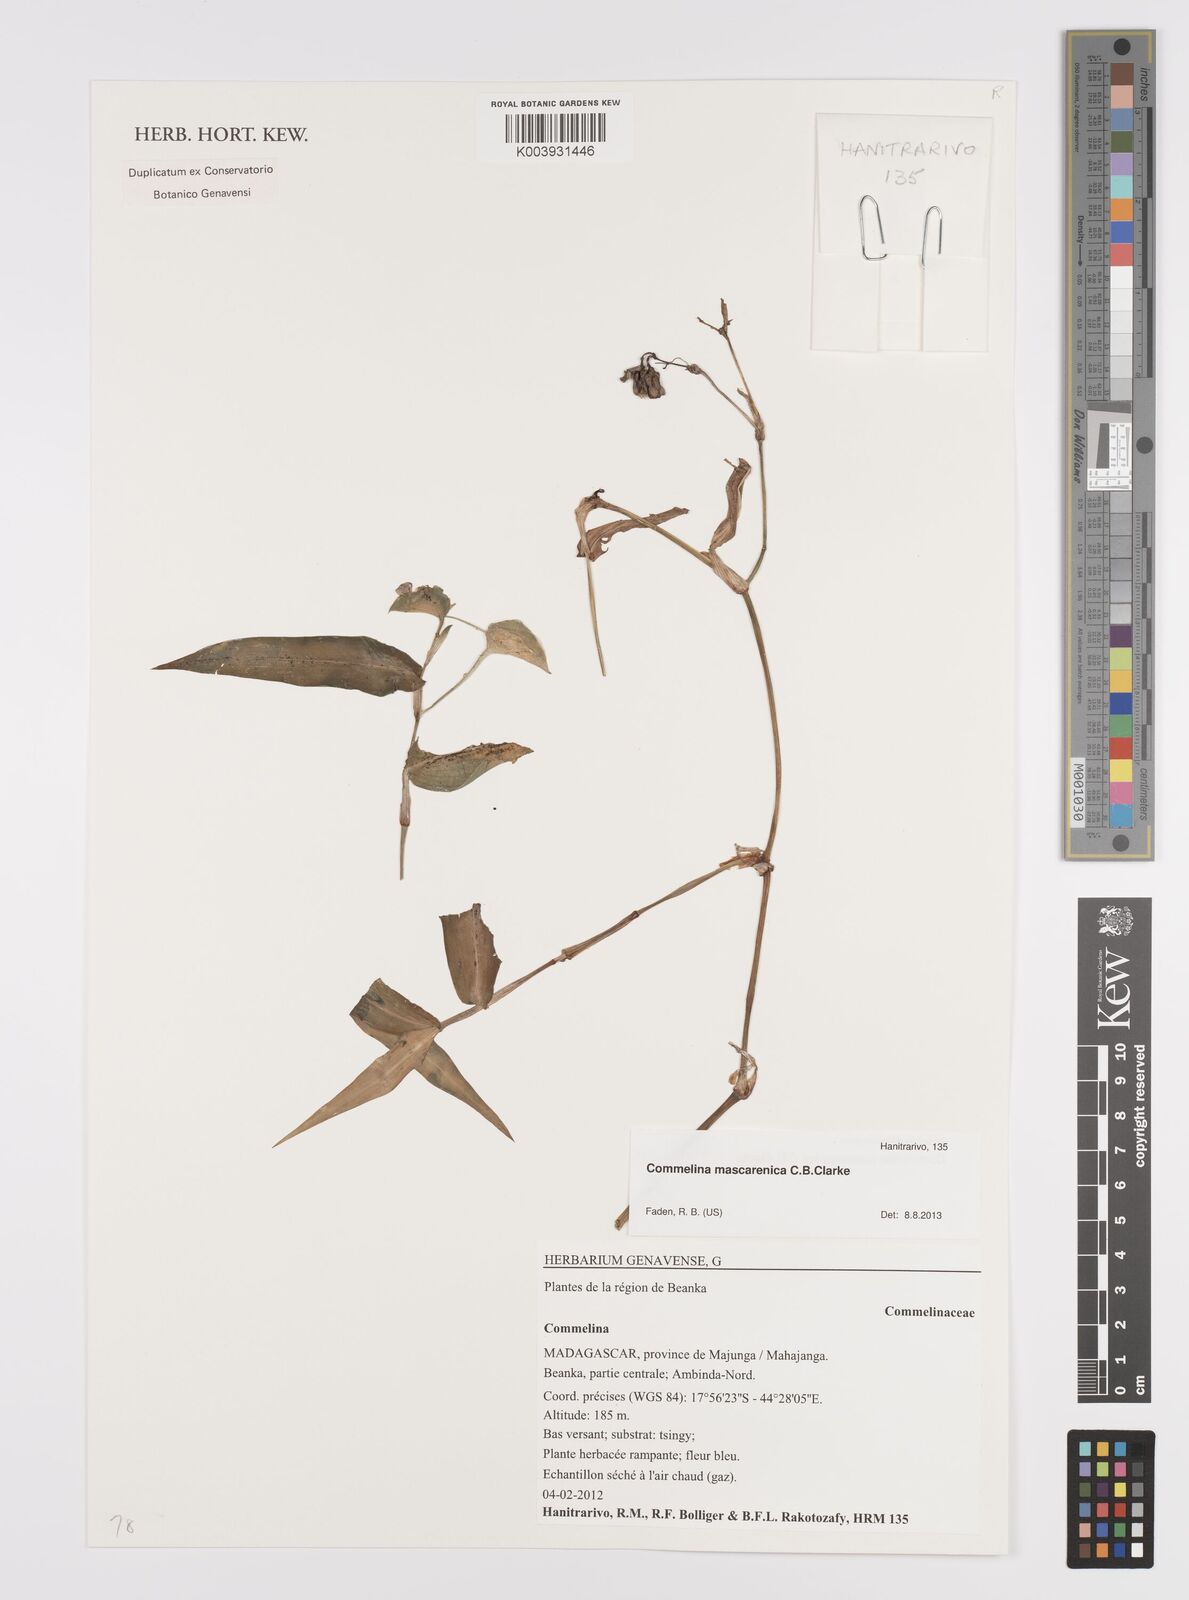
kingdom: Plantae
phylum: Tracheophyta
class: Liliopsida
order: Commelinales
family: Commelinaceae
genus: Commelina
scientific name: Commelina mascarenica
